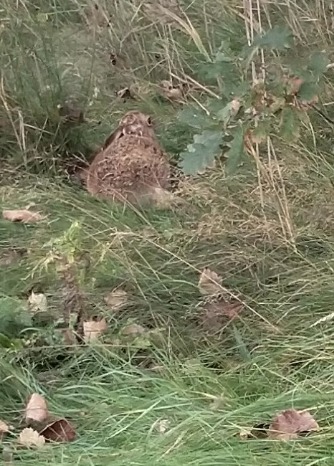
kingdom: Animalia
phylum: Chordata
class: Mammalia
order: Lagomorpha
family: Leporidae
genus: Lepus
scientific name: Lepus europaeus
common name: Hare
